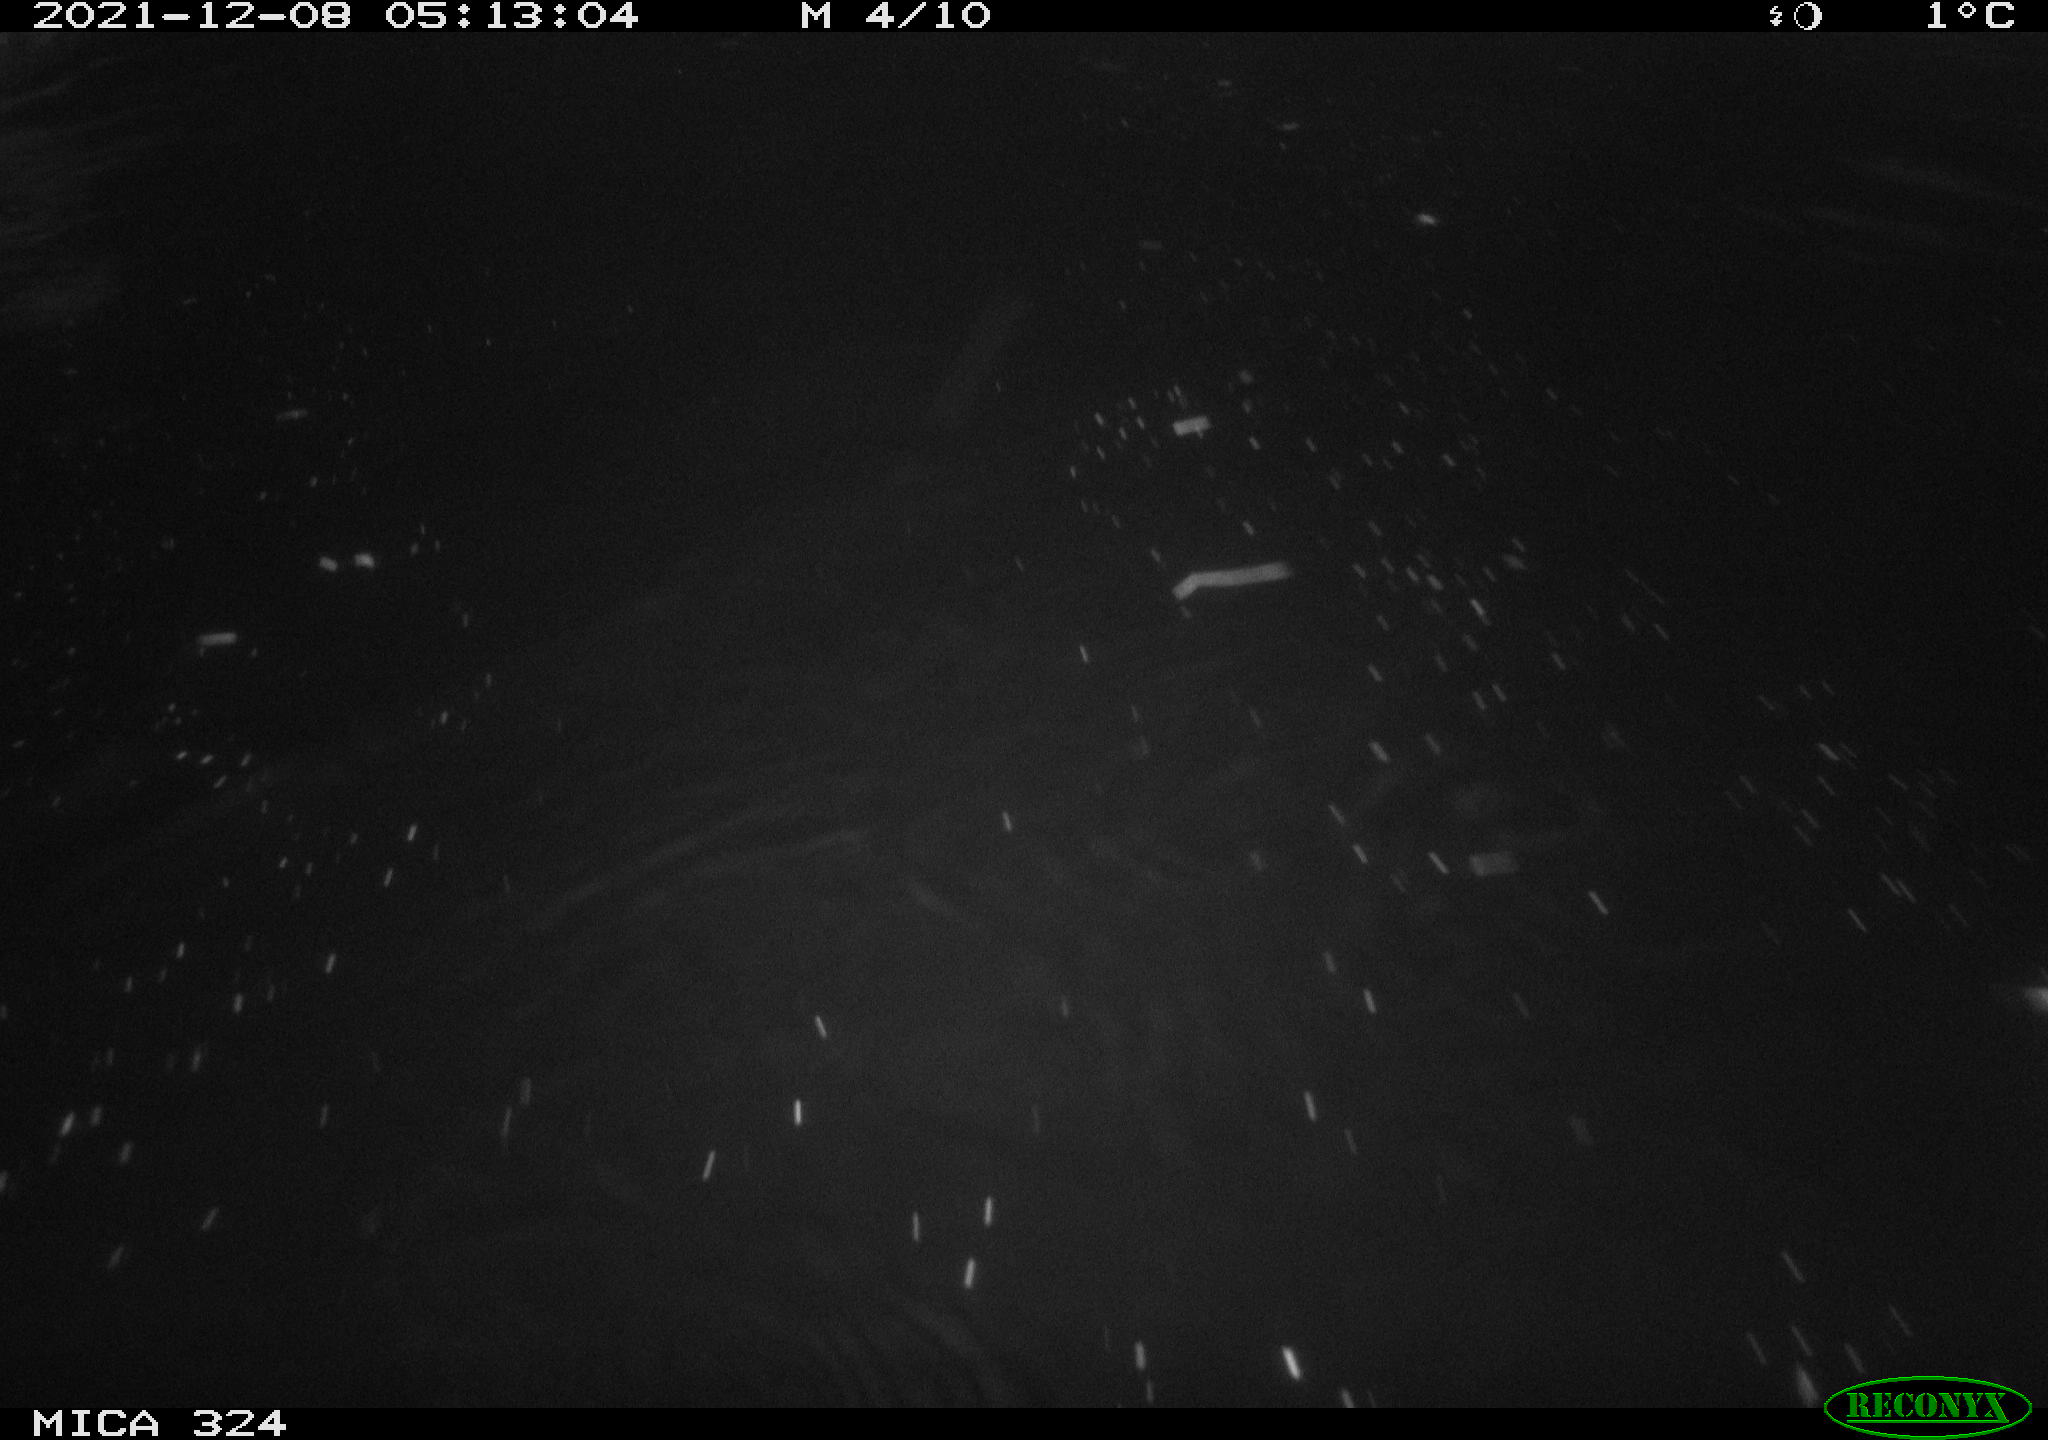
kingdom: Animalia
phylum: Chordata
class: Mammalia
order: Rodentia
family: Cricetidae
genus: Ondatra
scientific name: Ondatra zibethicus
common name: Muskrat
